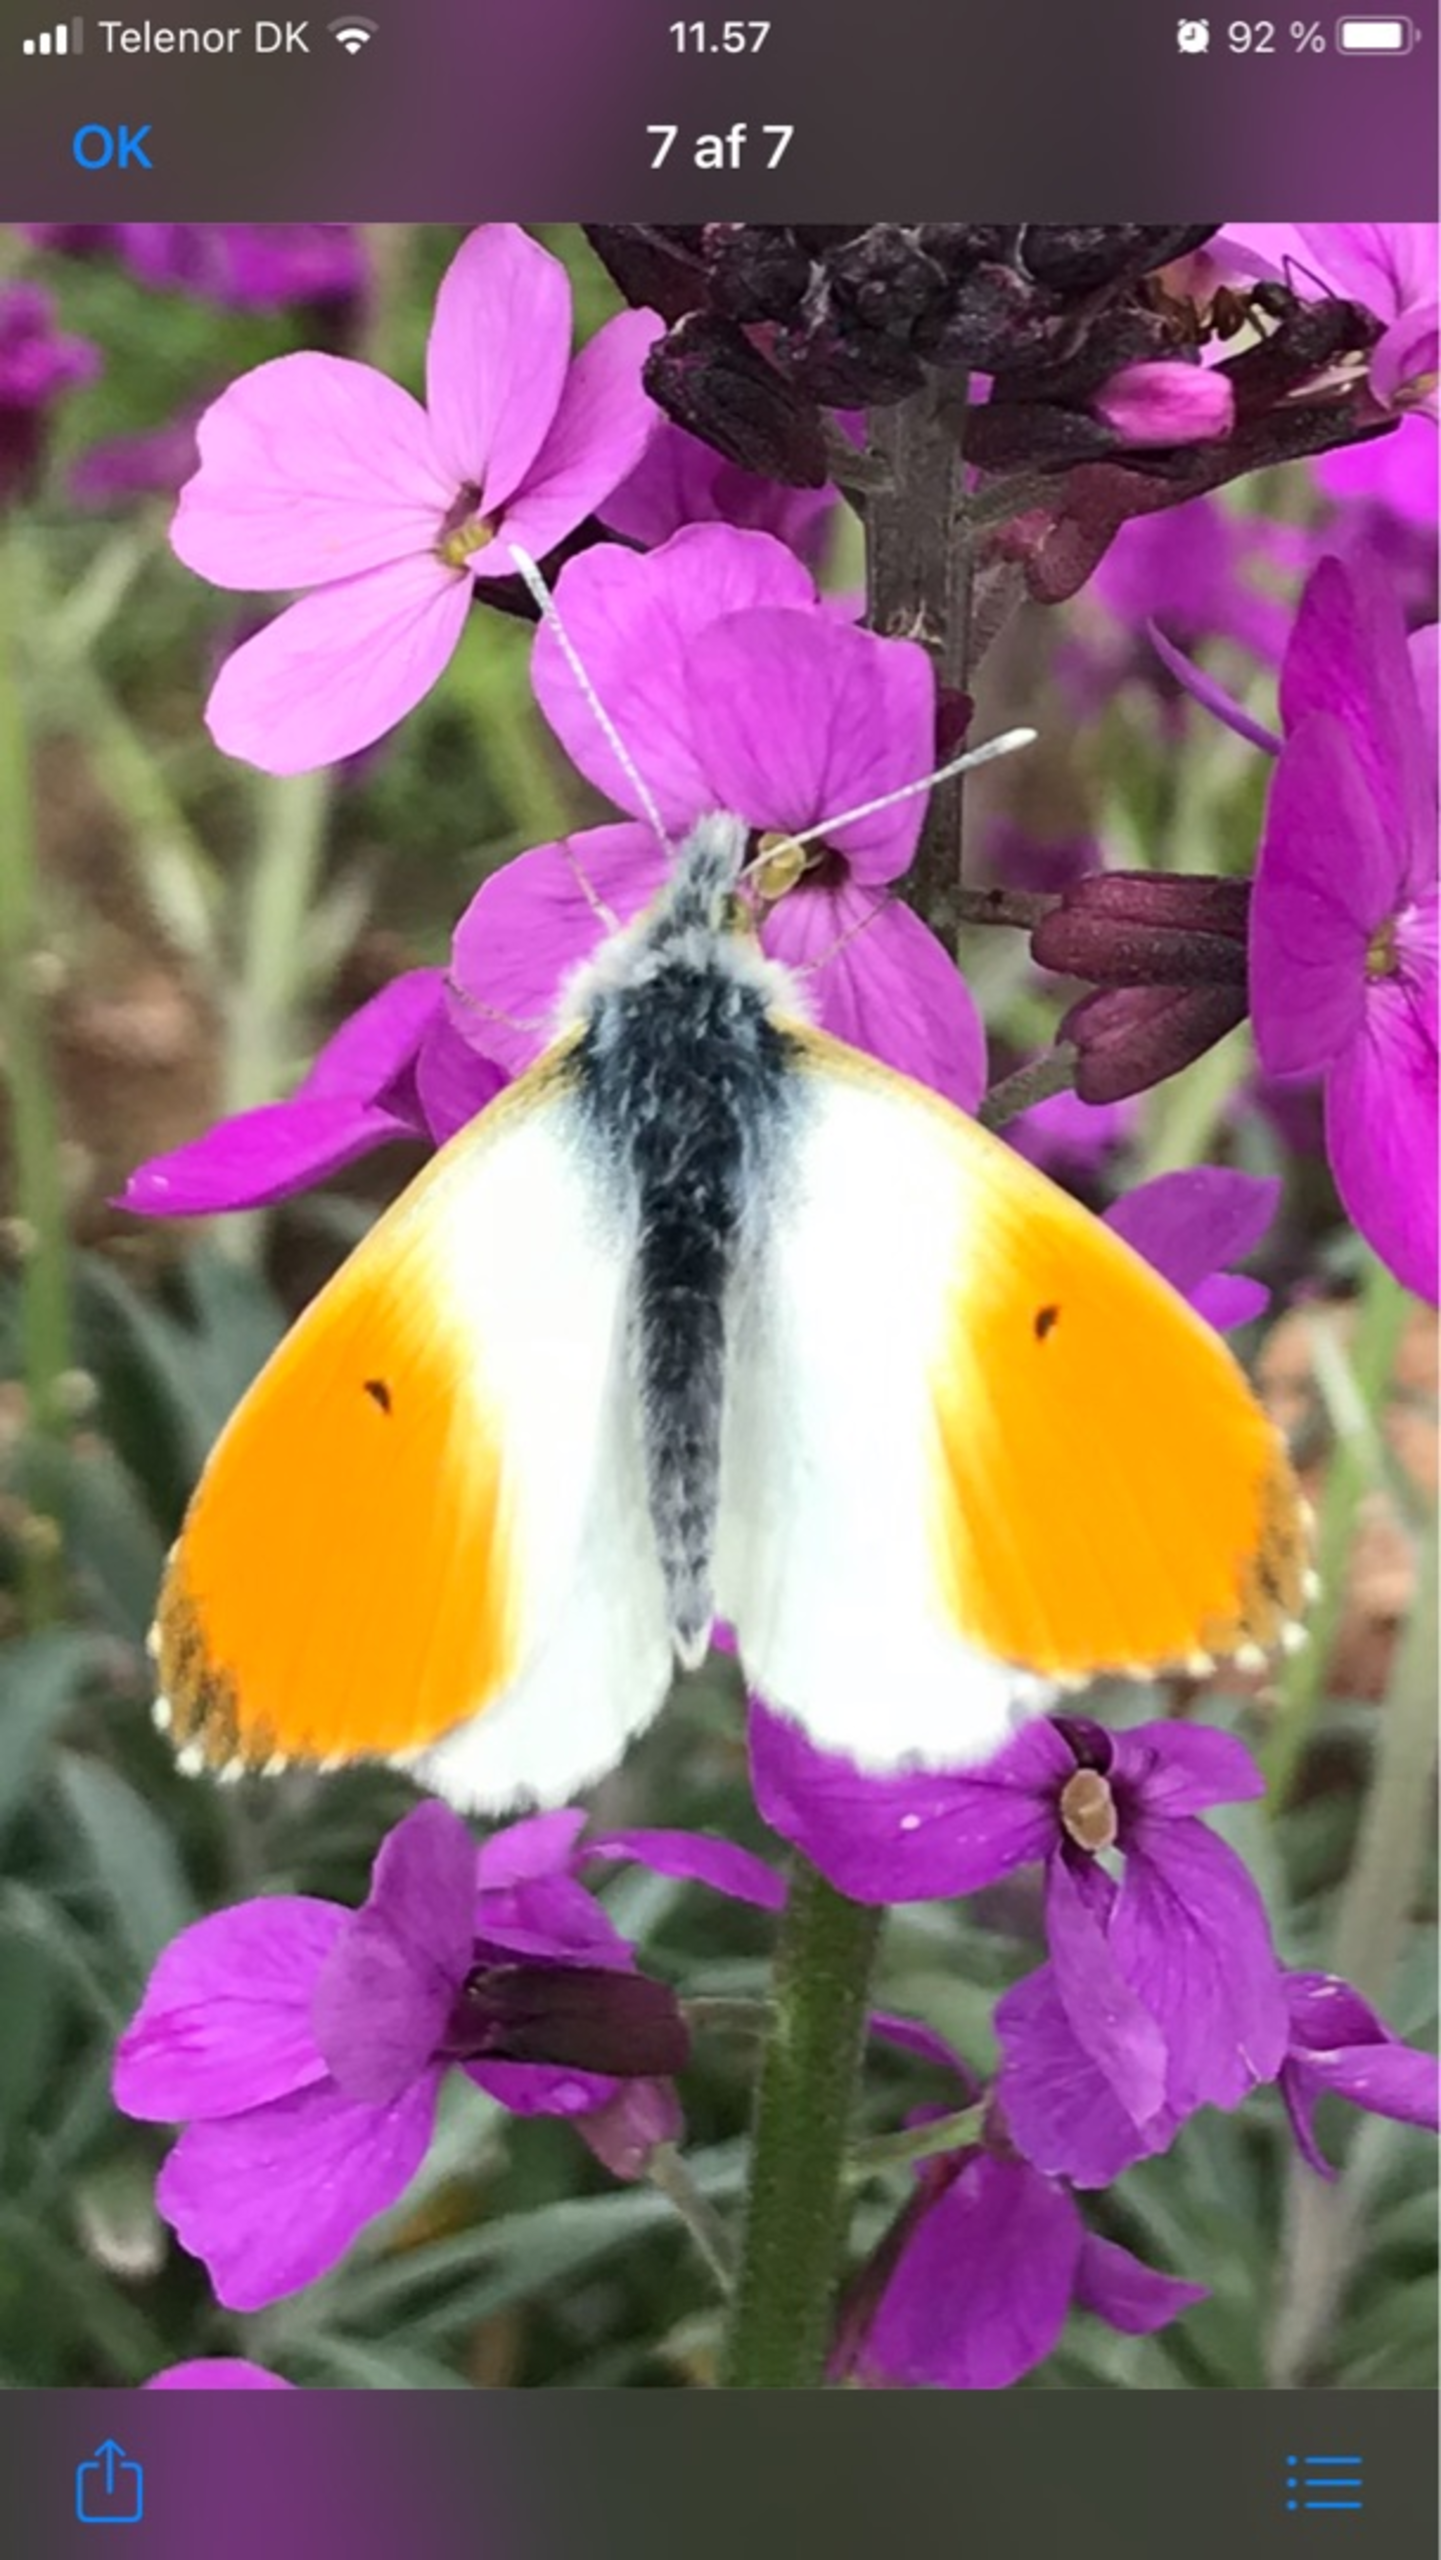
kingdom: Animalia
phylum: Arthropoda
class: Insecta
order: Lepidoptera
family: Pieridae
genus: Anthocharis
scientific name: Anthocharis cardamines
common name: Aurora
